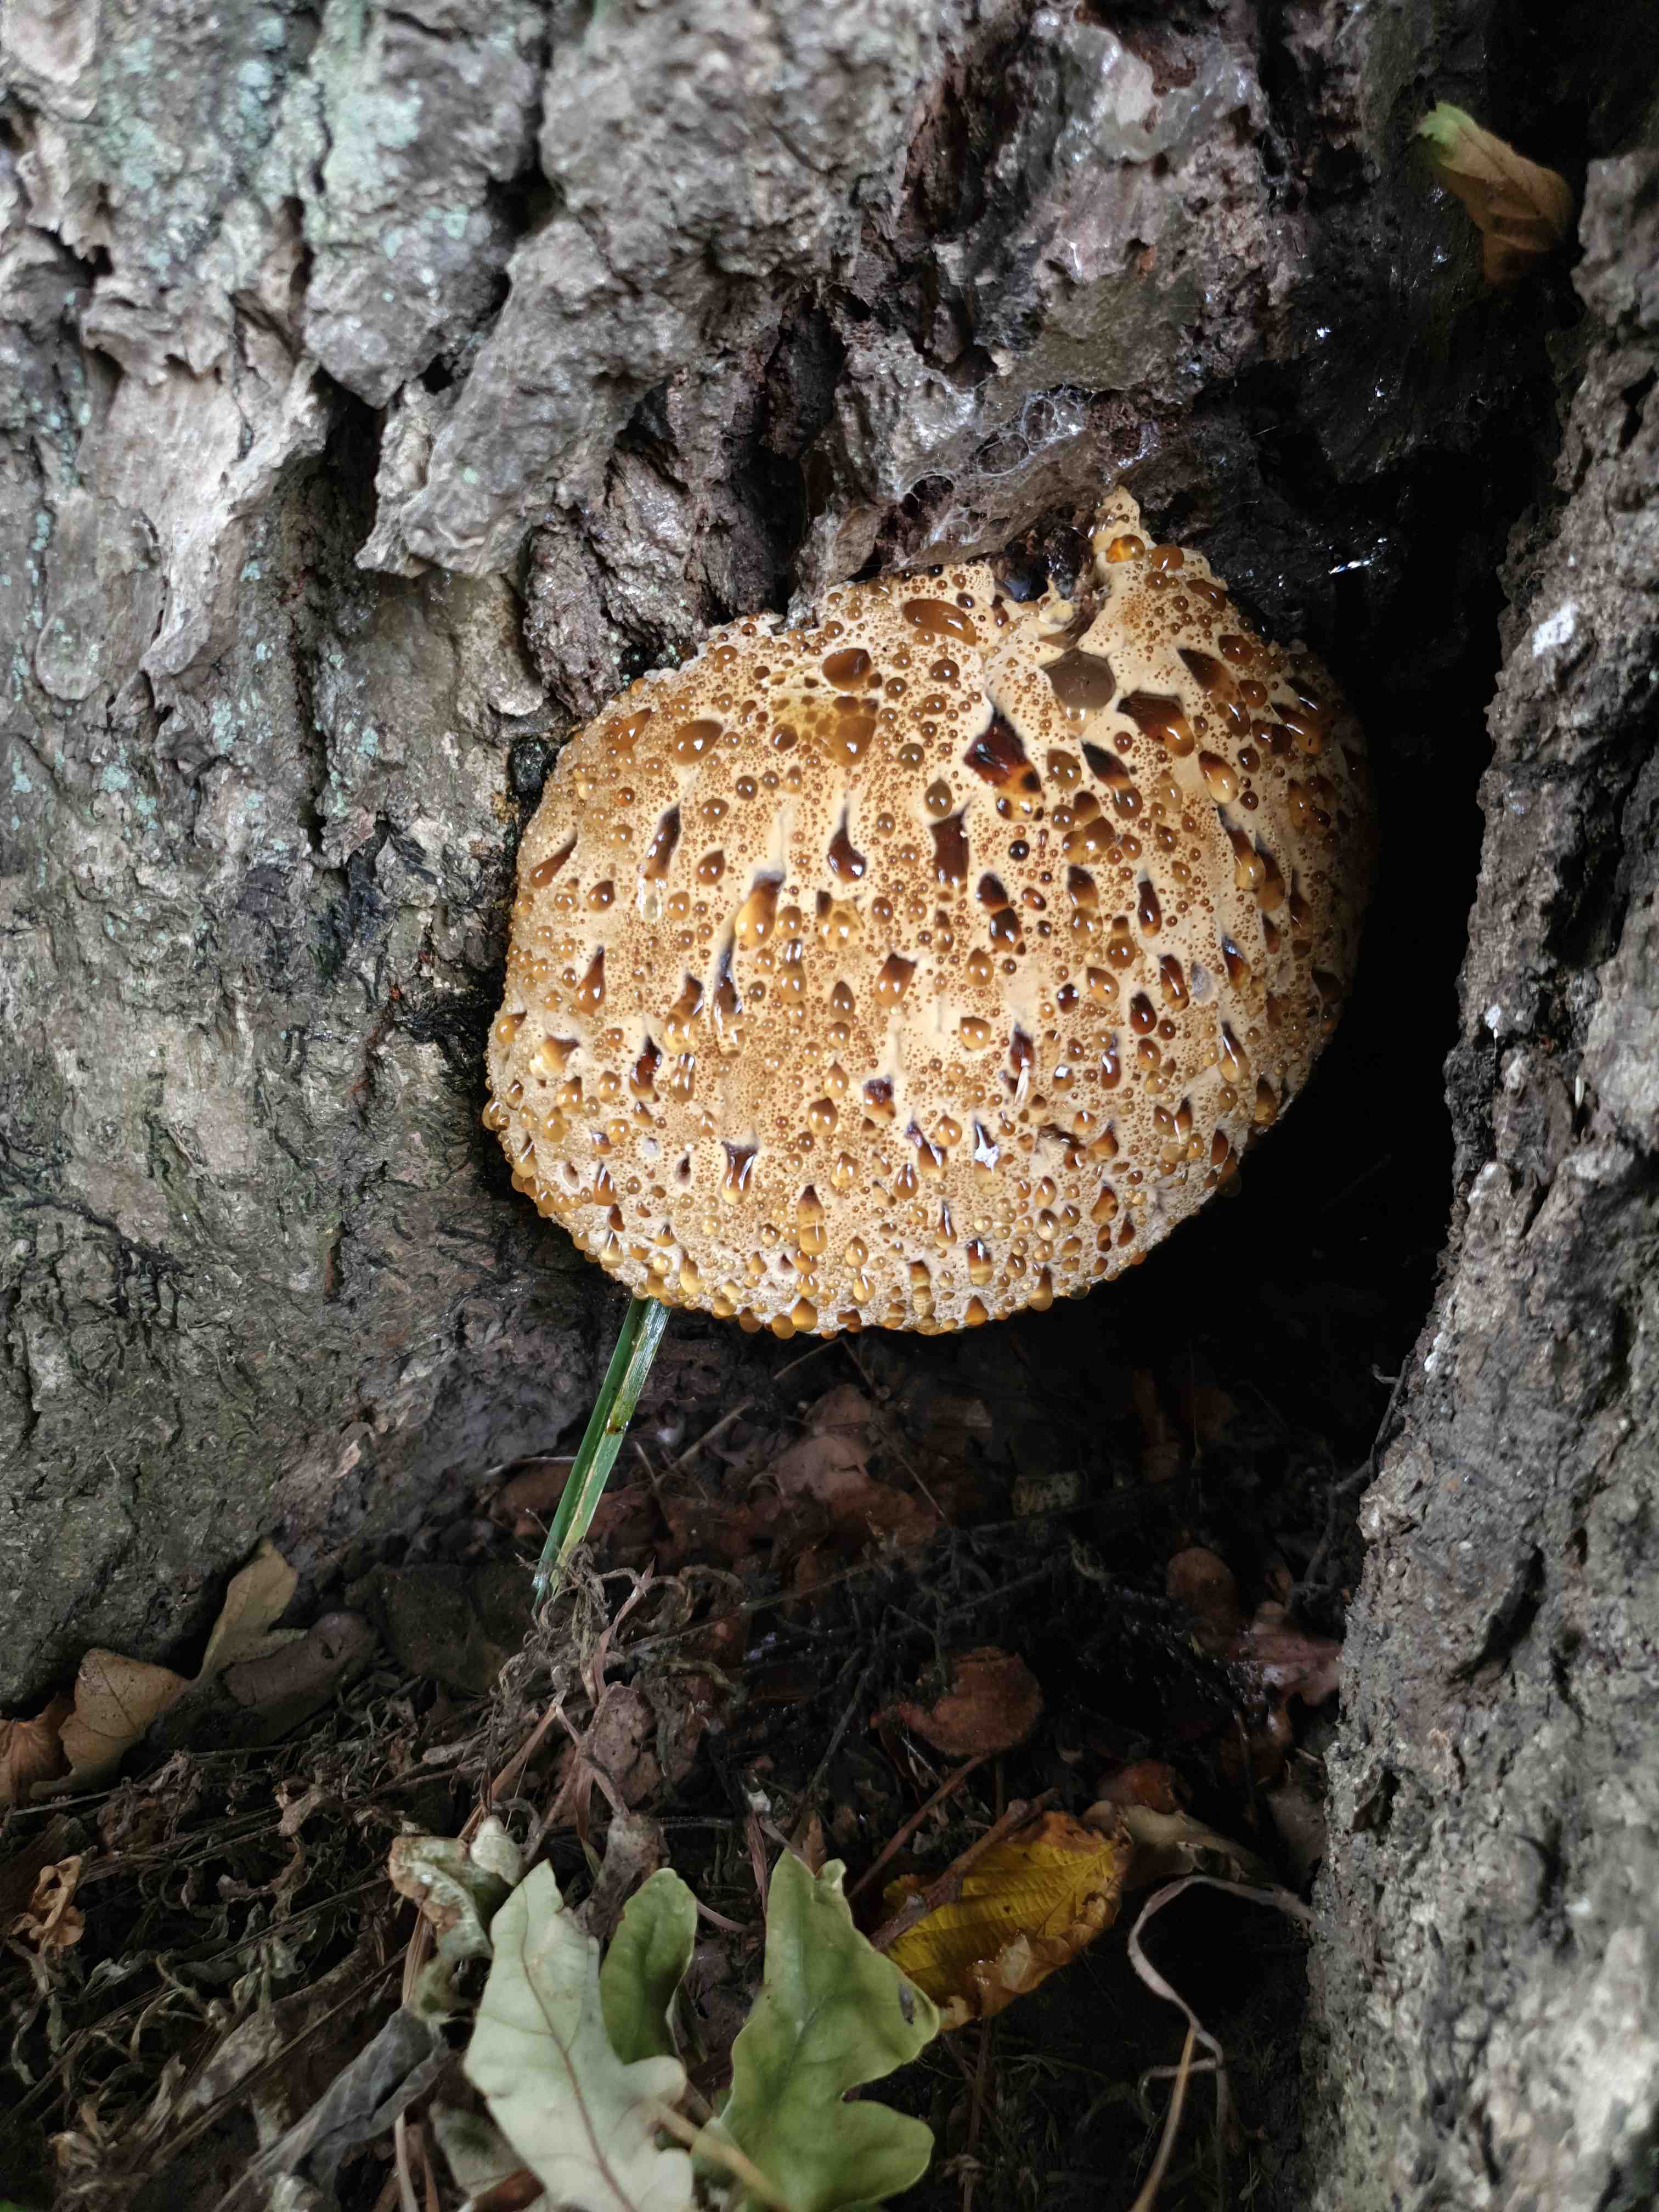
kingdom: Fungi
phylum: Basidiomycota
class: Agaricomycetes
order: Hymenochaetales
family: Hymenochaetaceae
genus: Pseudoinonotus
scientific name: Pseudoinonotus dryadeus
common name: ege-spejlporesvamp
